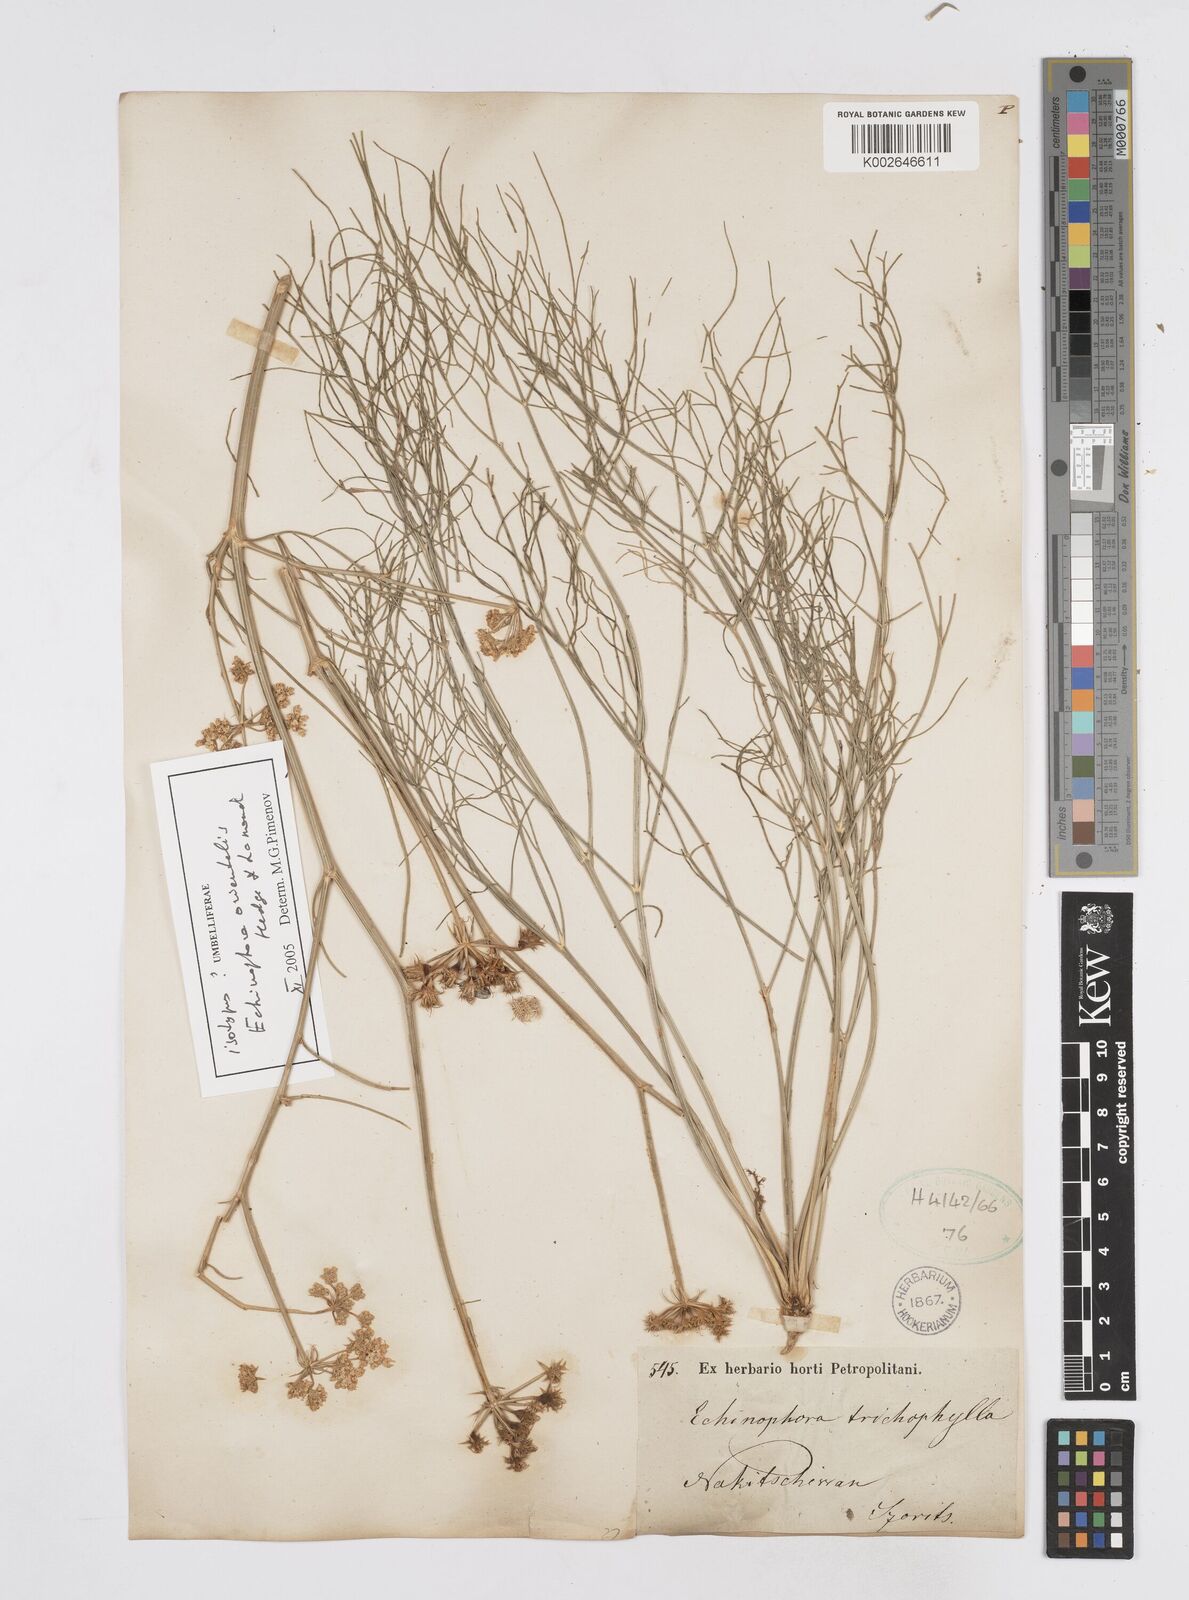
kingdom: Plantae
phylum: Tracheophyta
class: Magnoliopsida
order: Apiales
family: Apiaceae
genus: Echinophora
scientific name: Echinophora trichophylla
